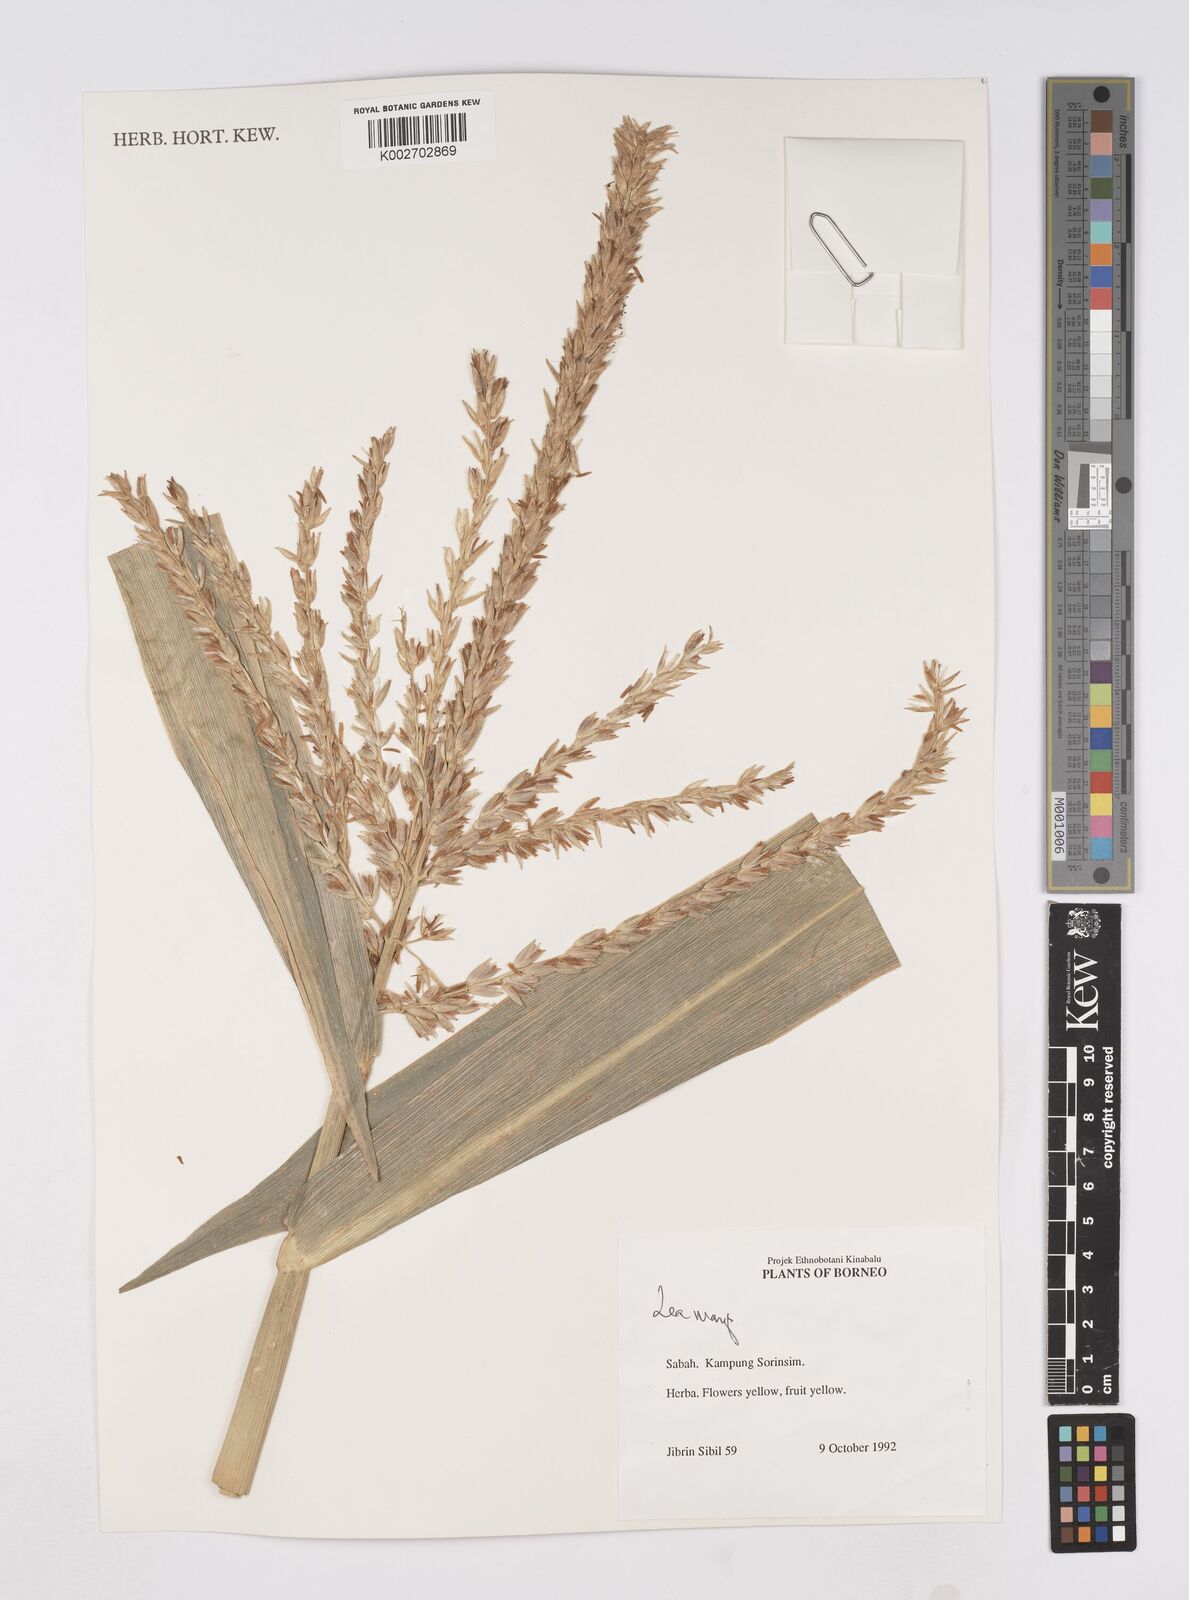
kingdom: Plantae
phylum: Tracheophyta
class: Liliopsida
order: Poales
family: Poaceae
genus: Zea
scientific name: Zea mays
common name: Maize
